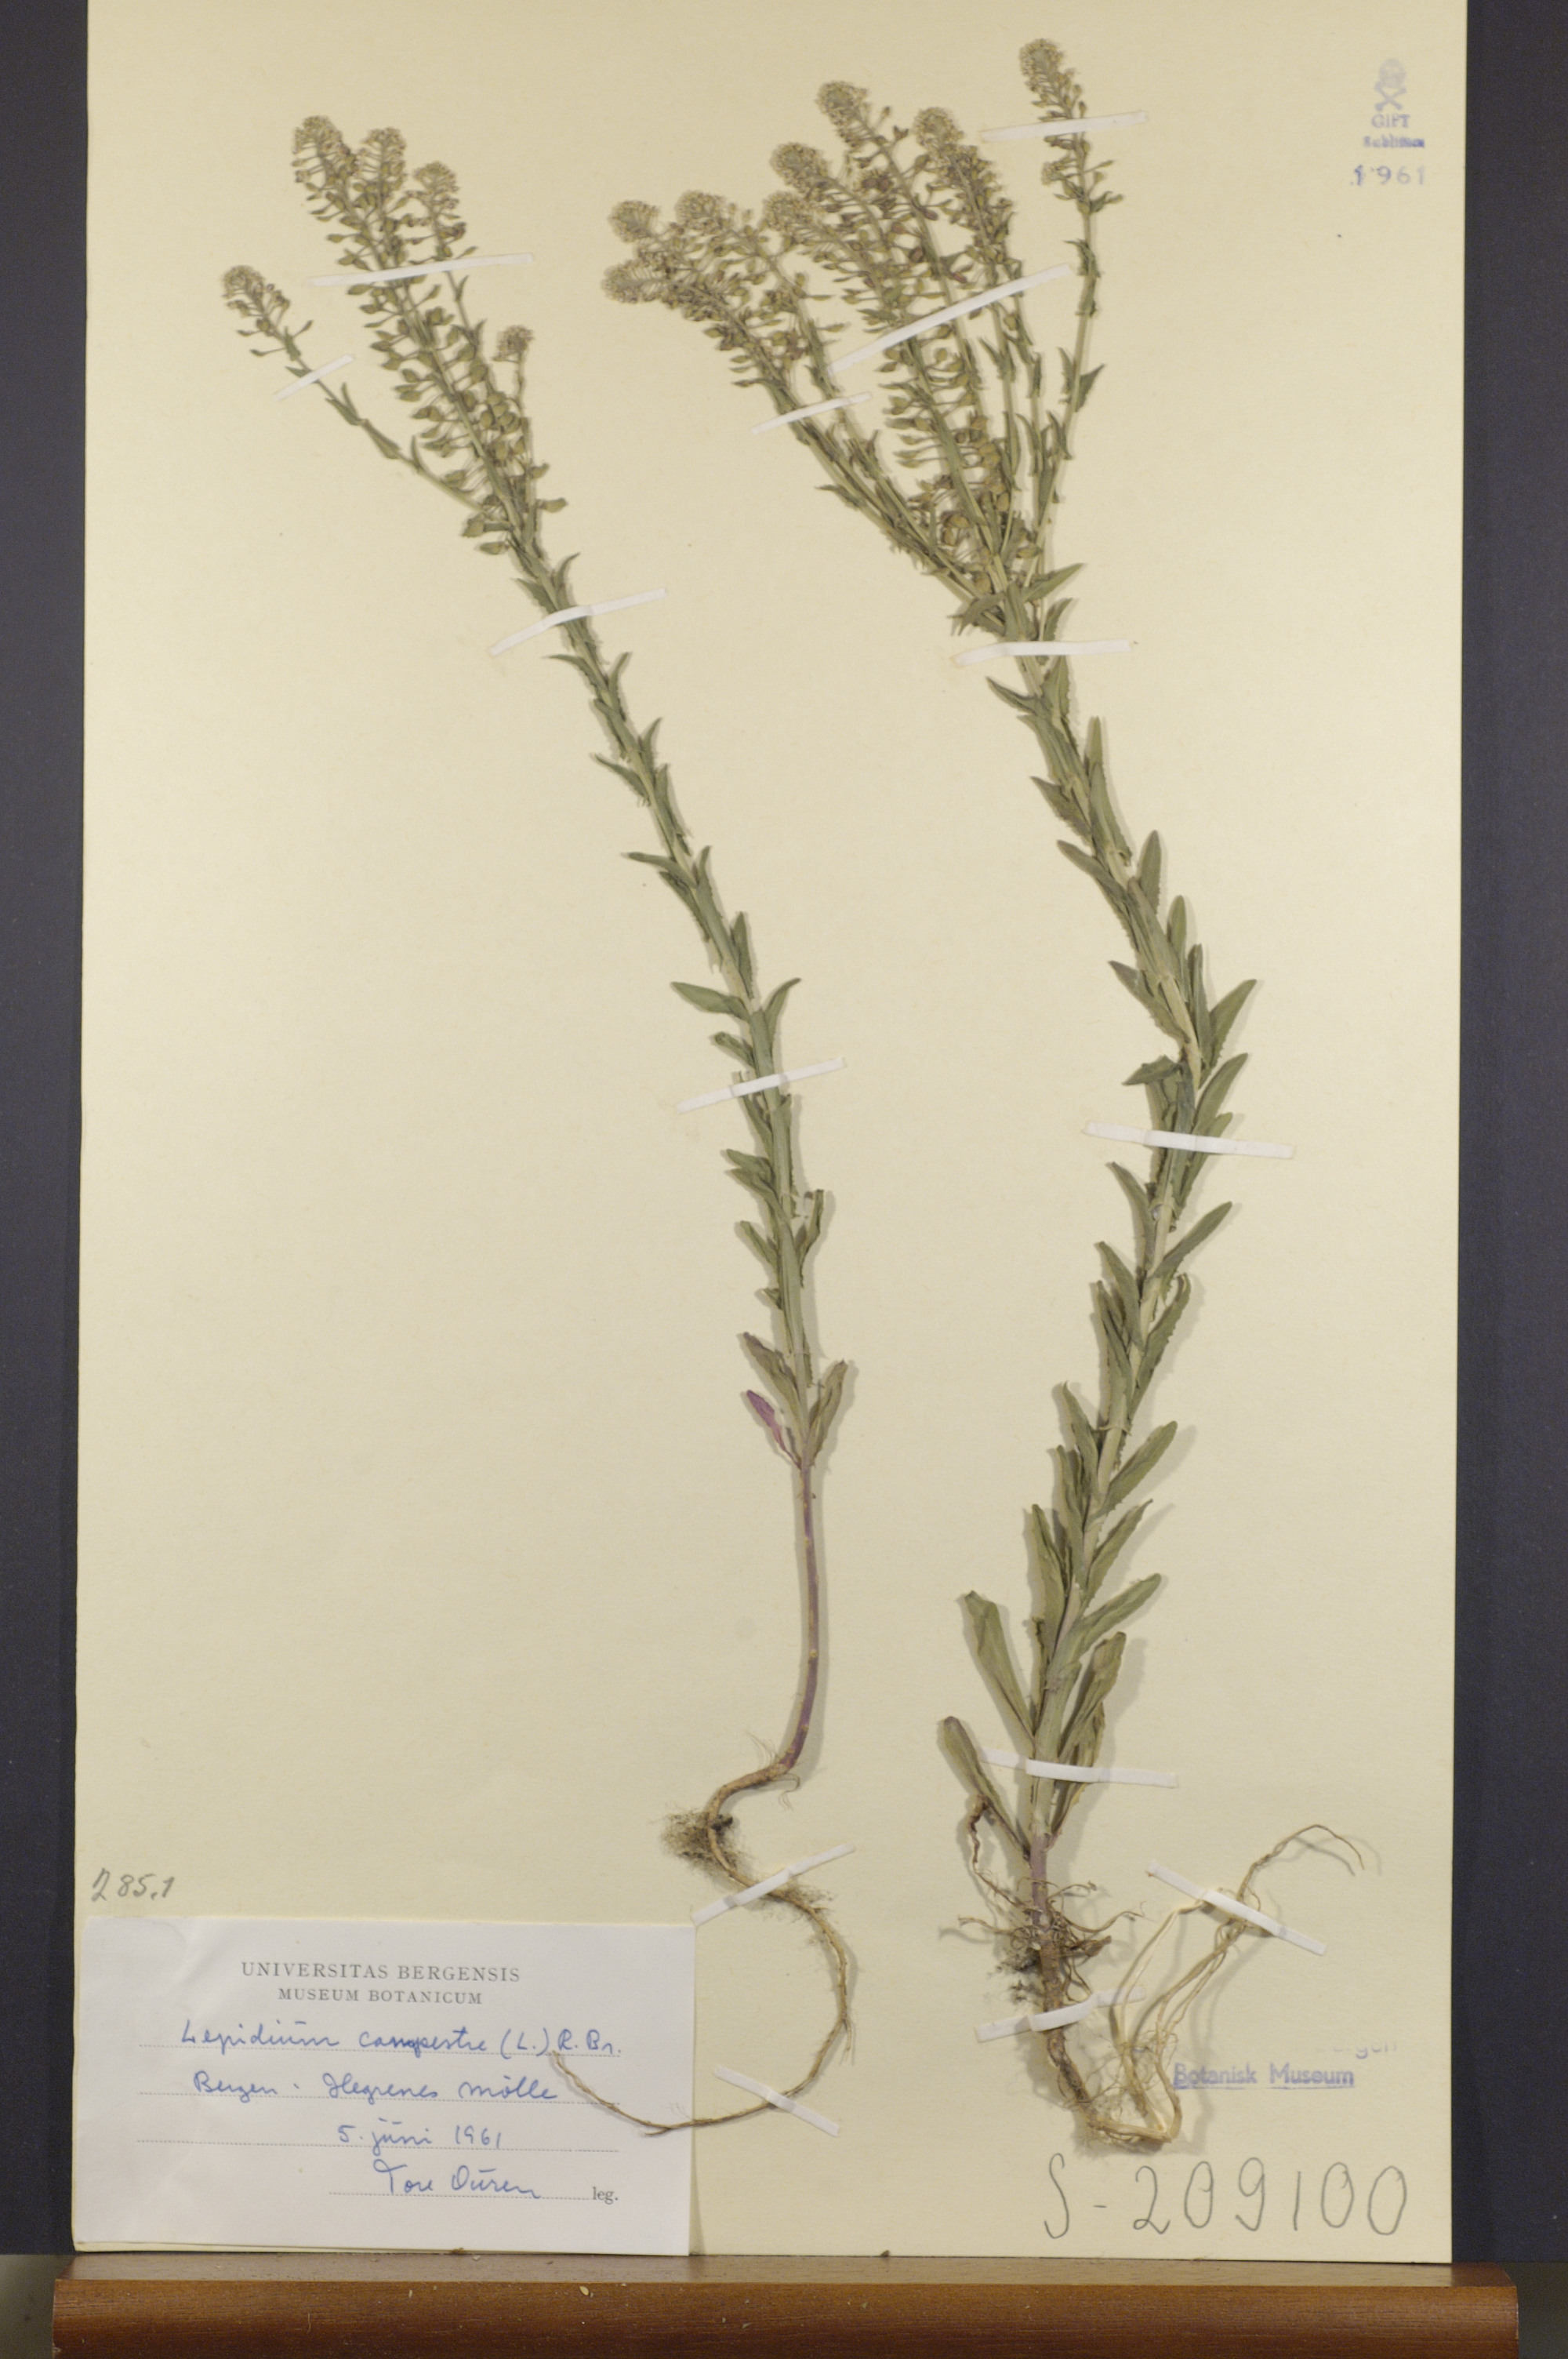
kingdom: Plantae
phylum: Tracheophyta
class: Magnoliopsida
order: Brassicales
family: Brassicaceae
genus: Lepidium
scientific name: Lepidium campestre
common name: Field pepperwort
